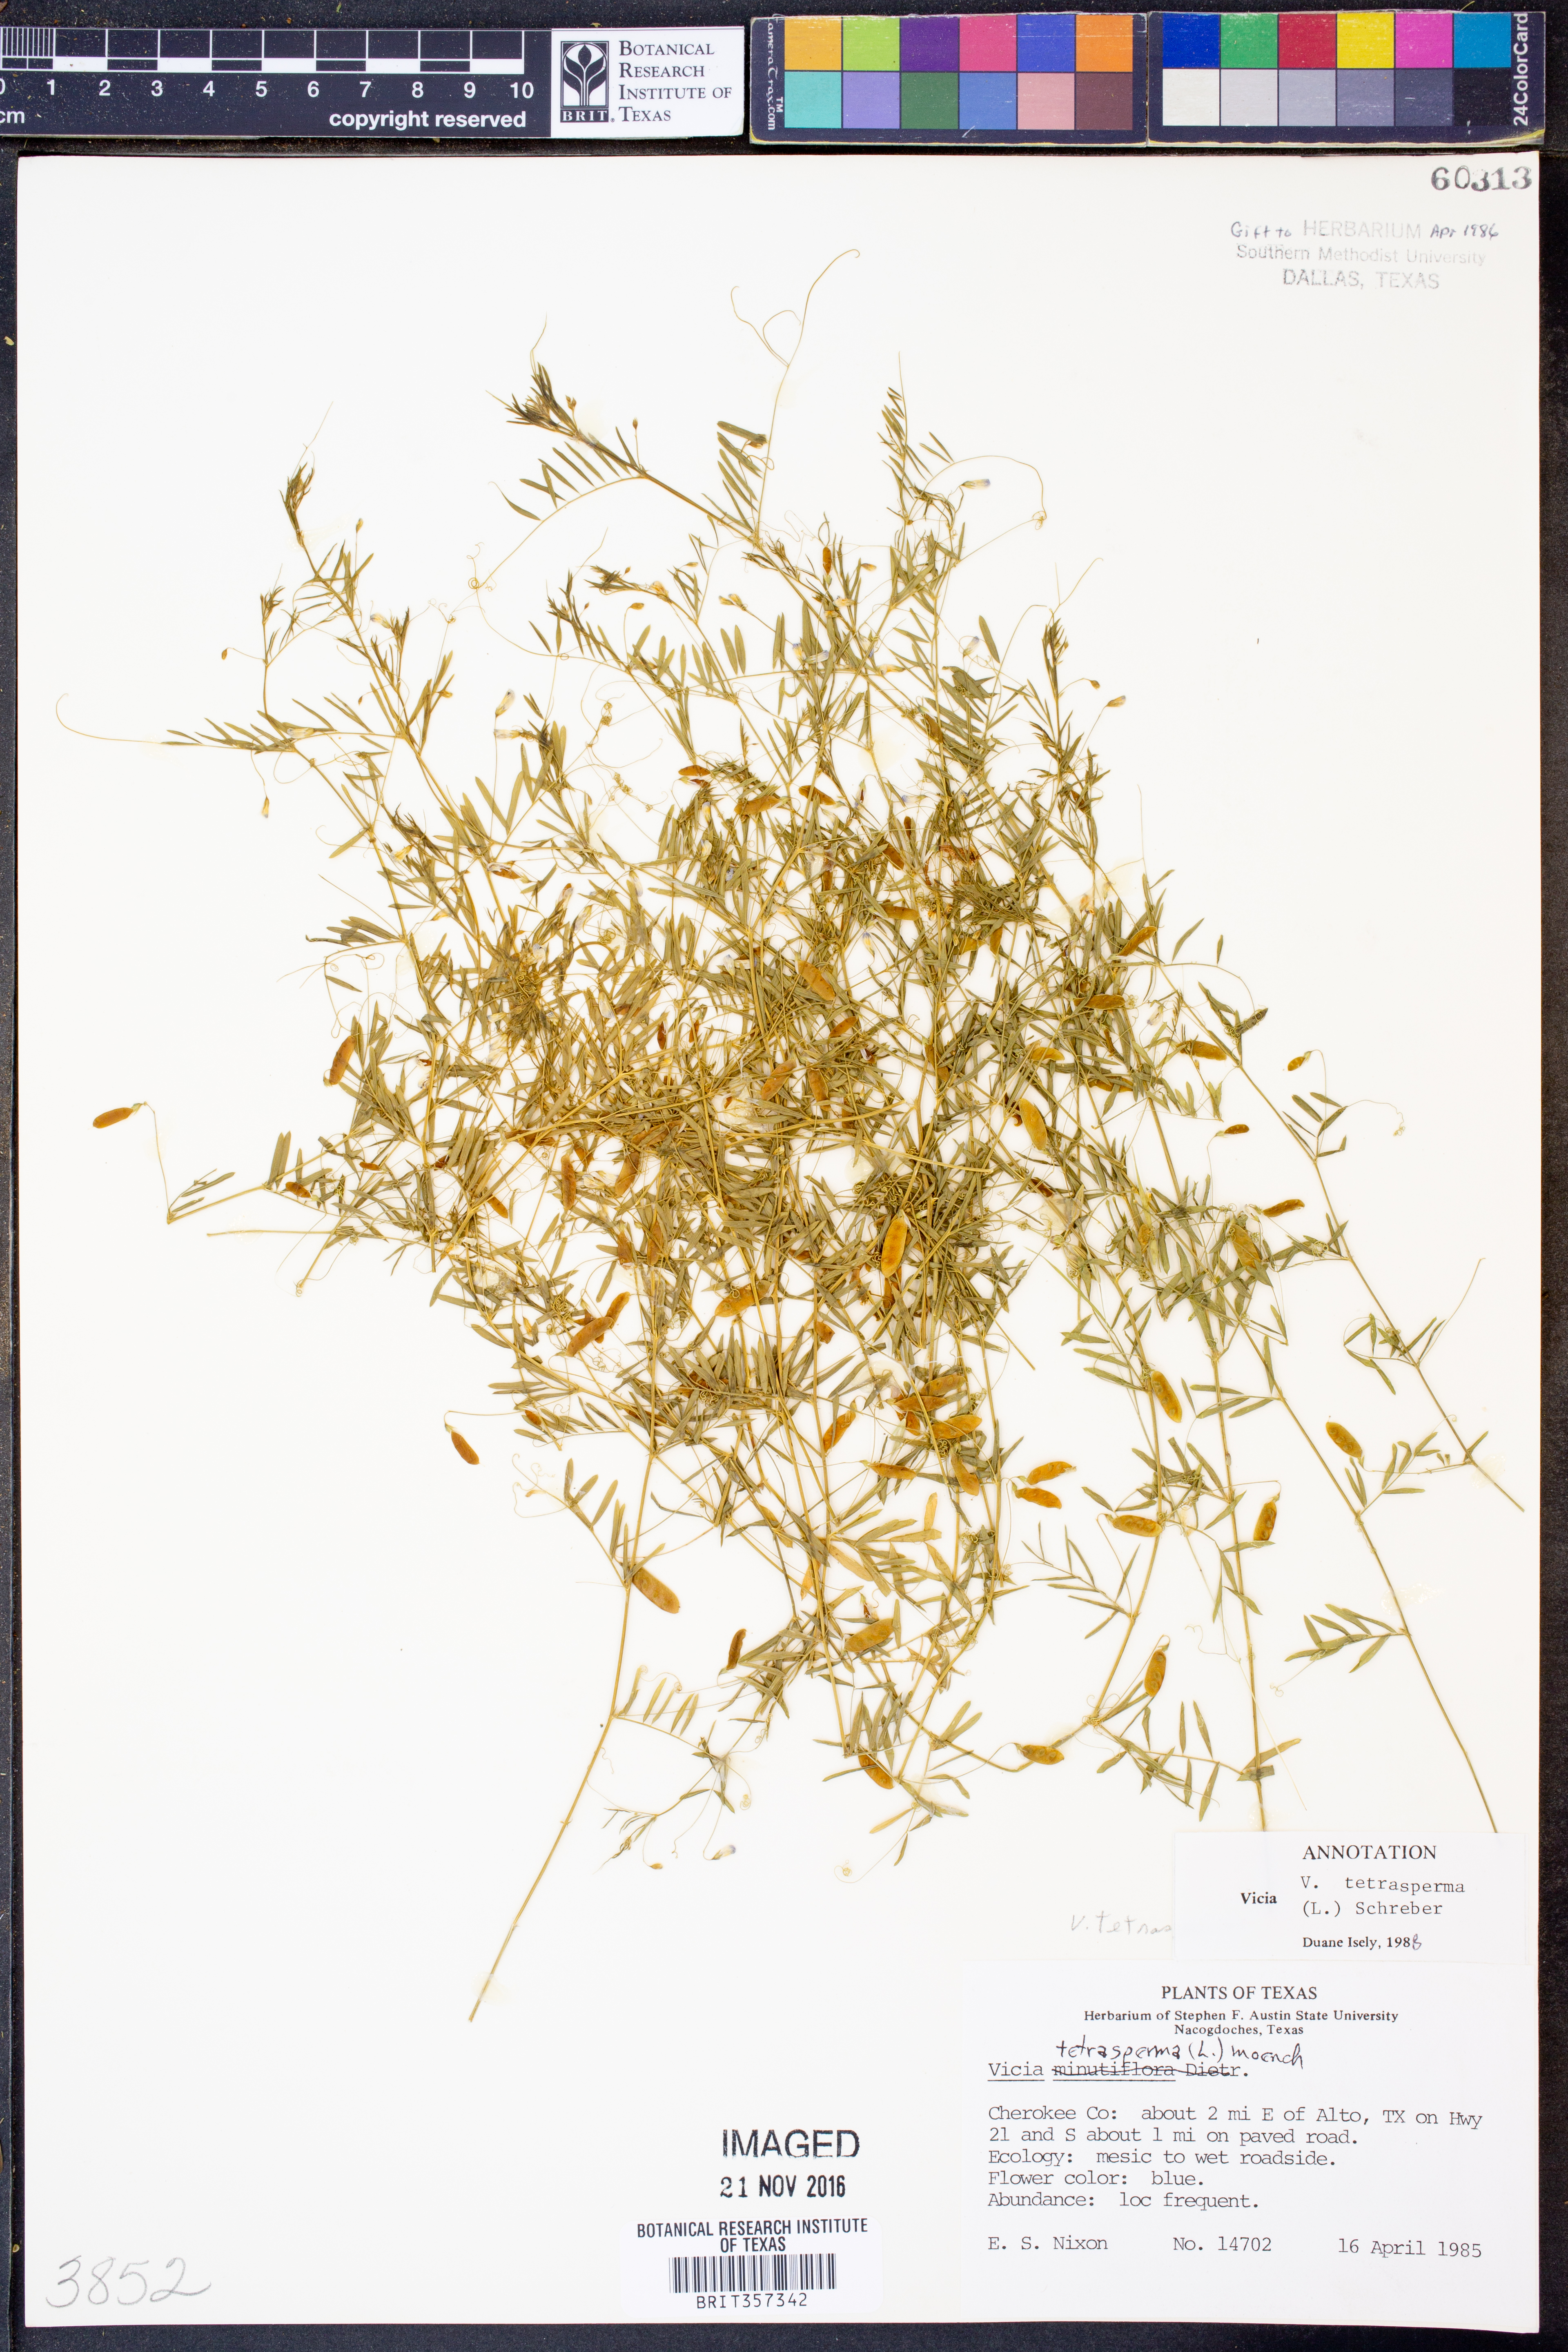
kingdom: Plantae
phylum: Tracheophyta
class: Magnoliopsida
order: Fabales
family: Fabaceae
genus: Vicia
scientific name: Vicia tetrasperma
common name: Smooth tare
